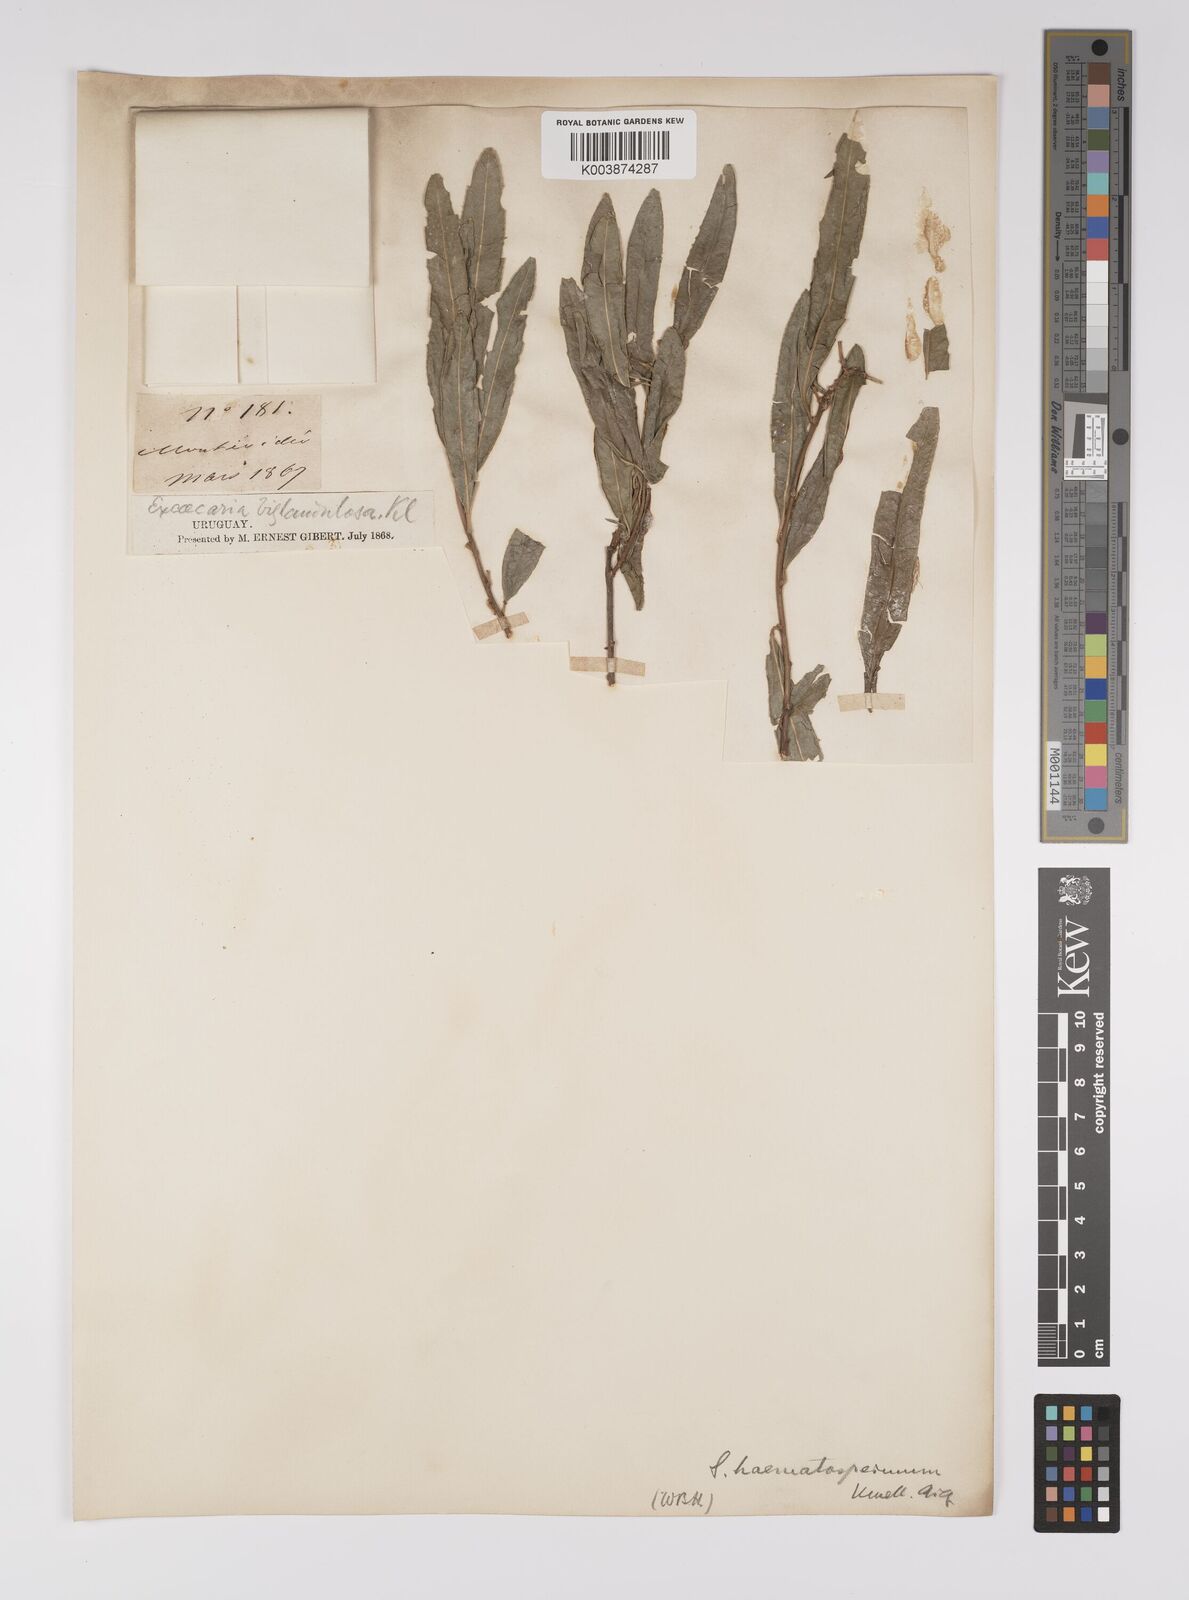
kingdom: Plantae
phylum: Tracheophyta
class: Magnoliopsida
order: Malpighiales
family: Euphorbiaceae
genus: Sapium
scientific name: Sapium haematospermum
